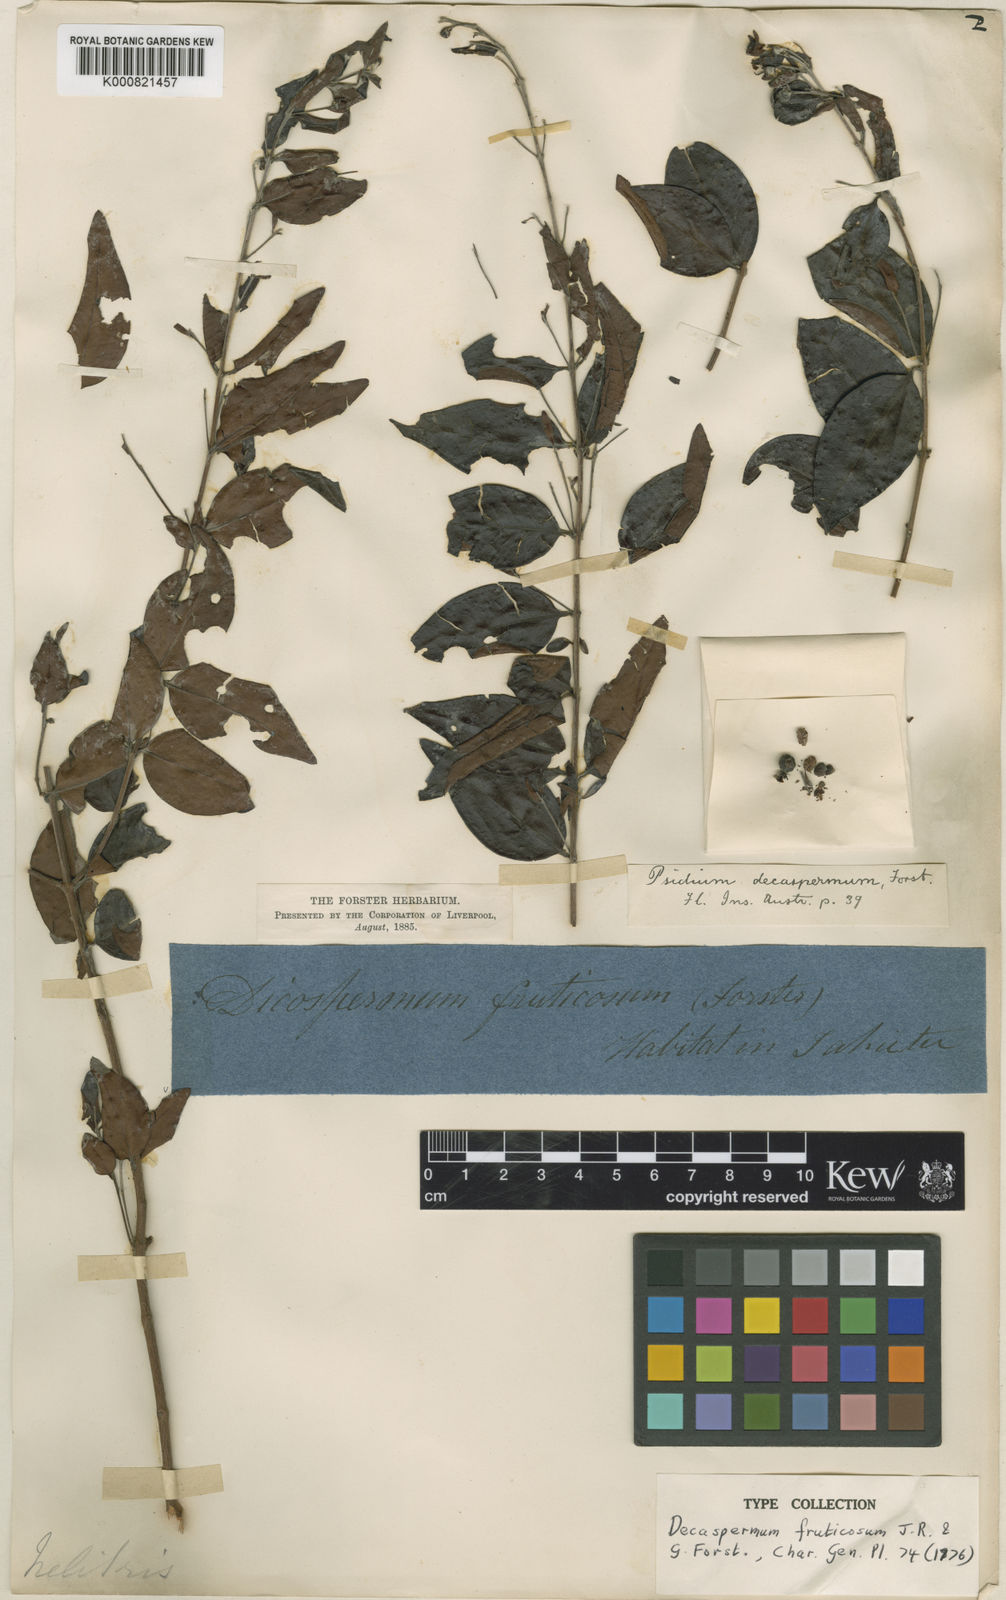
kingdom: Plantae
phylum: Tracheophyta
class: Magnoliopsida
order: Myrtales
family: Myrtaceae
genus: Decaspermum
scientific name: Decaspermum fruticosum
